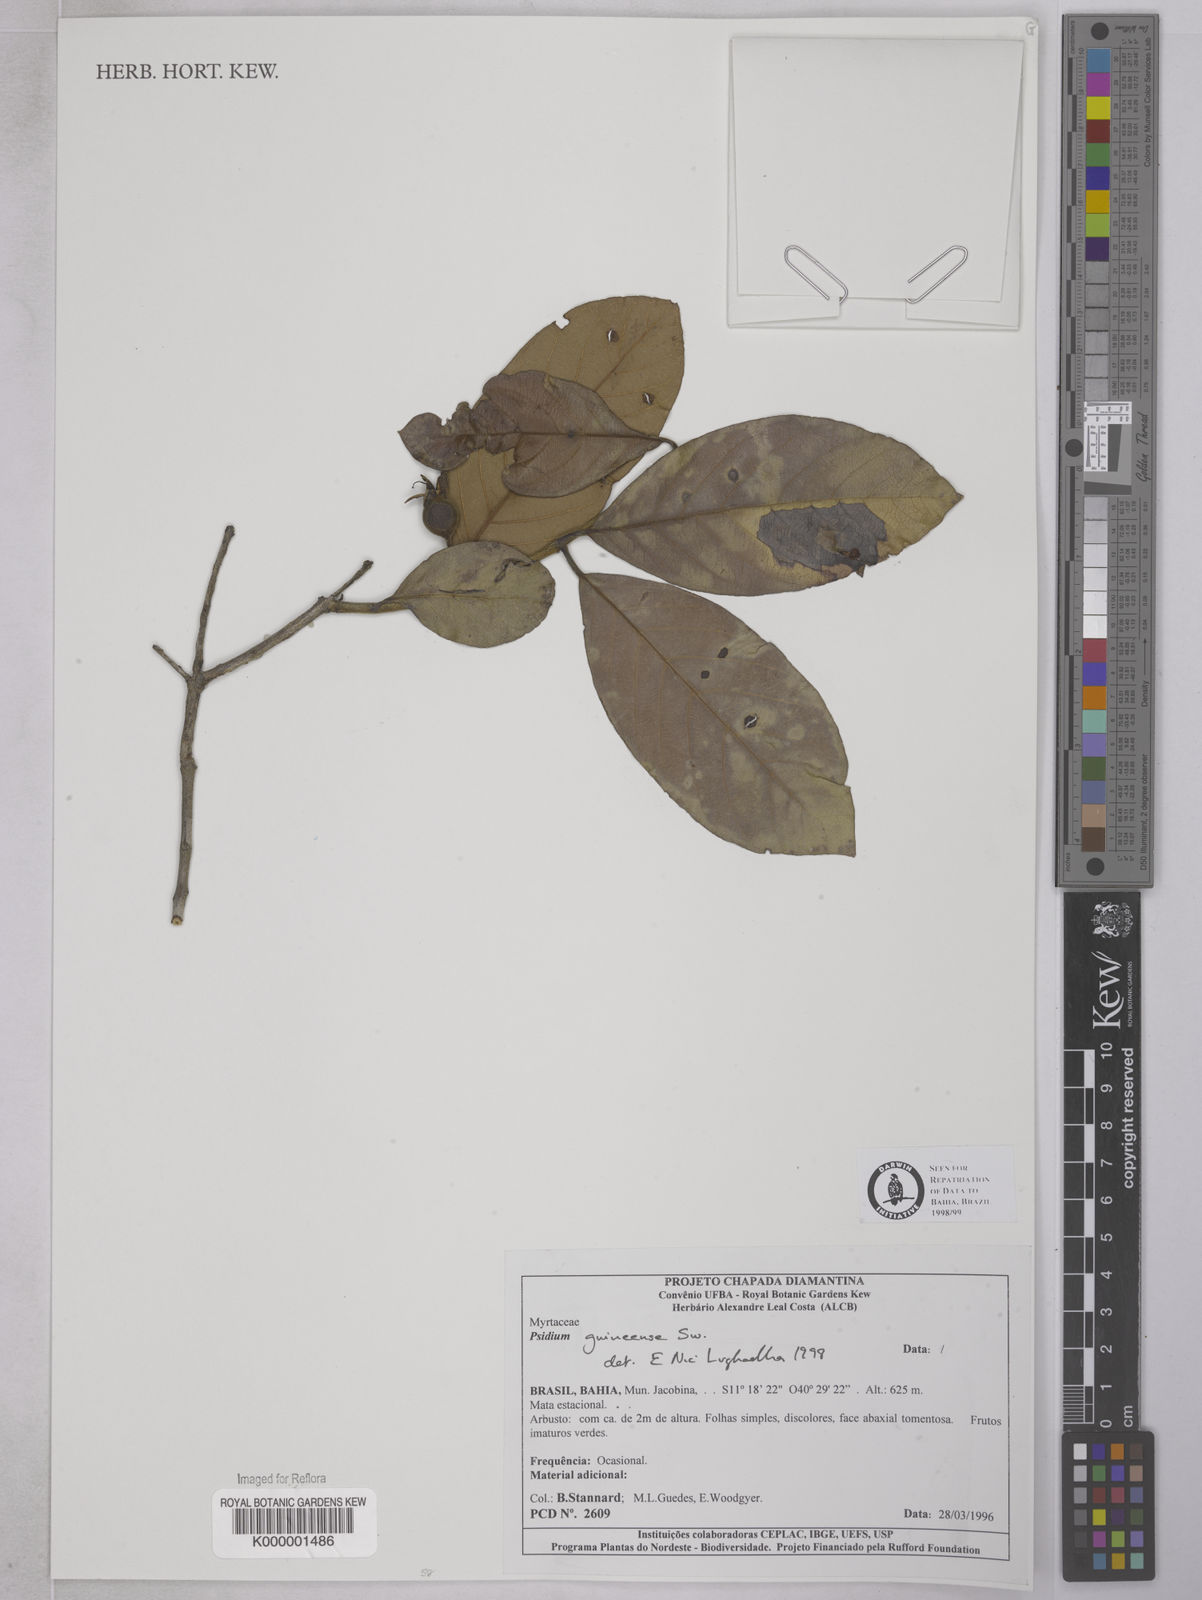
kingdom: Plantae
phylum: Tracheophyta
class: Magnoliopsida
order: Myrtales
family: Myrtaceae
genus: Psidium
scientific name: Psidium guineense
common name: Brazilian guava
